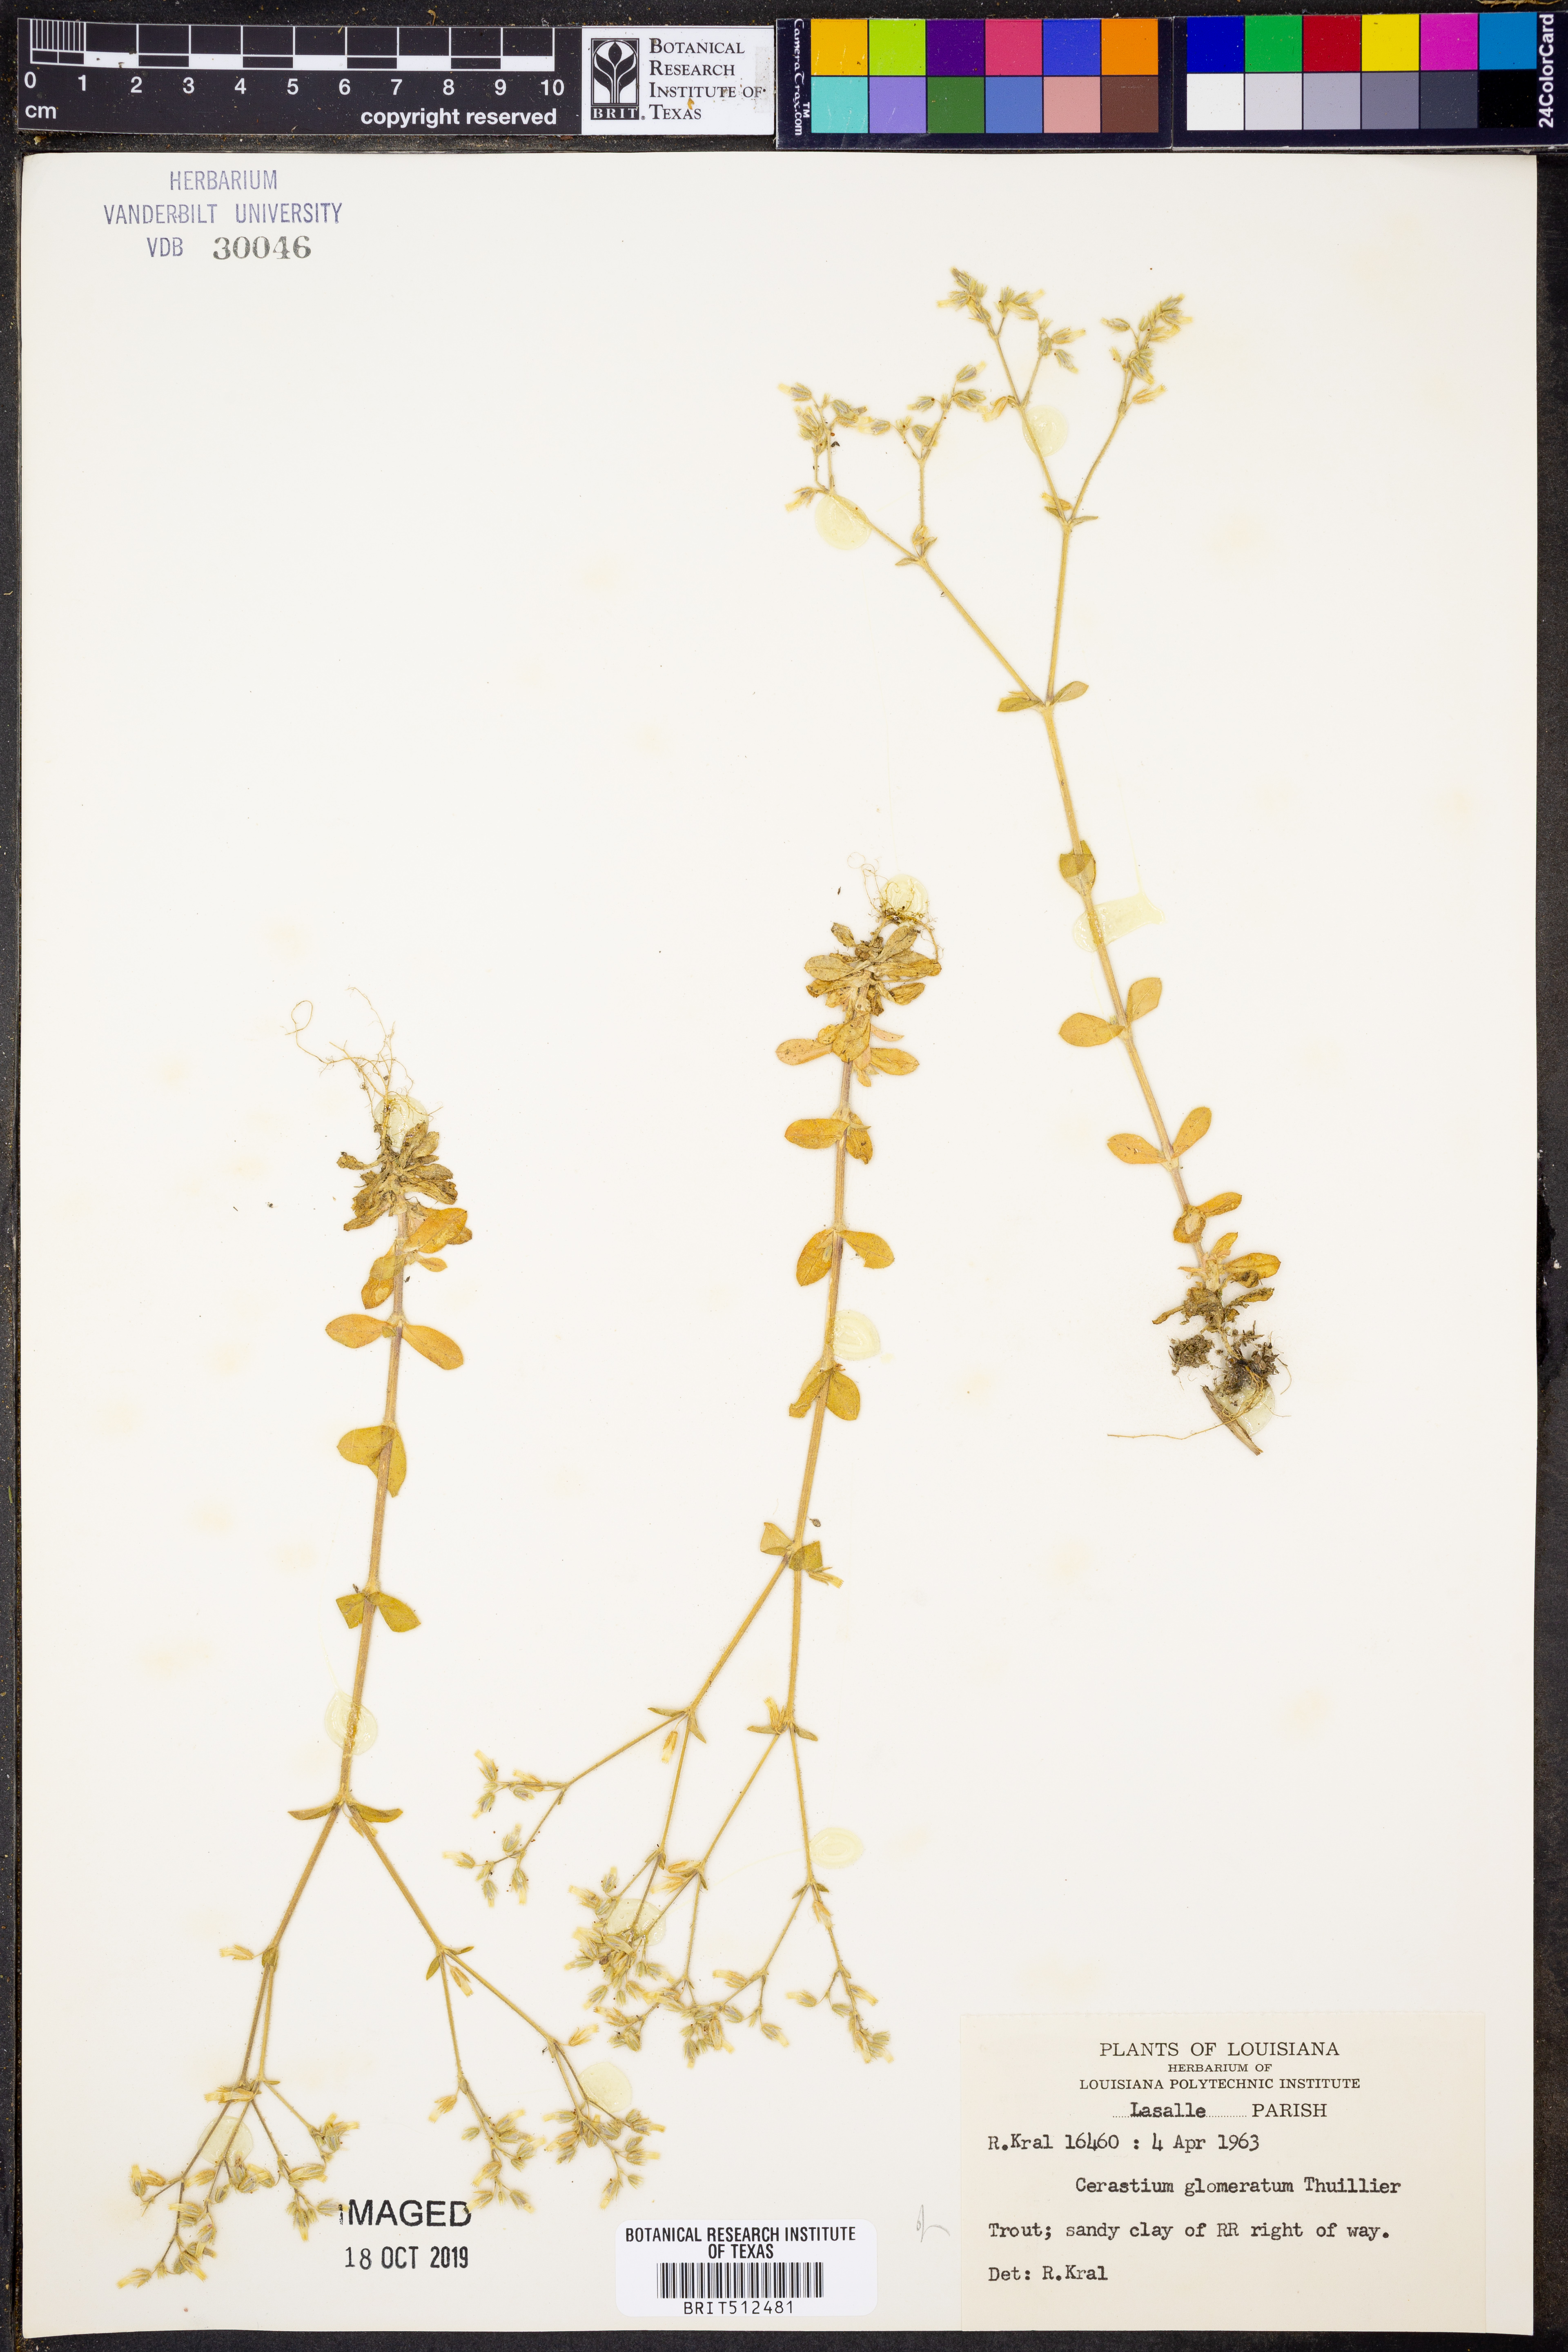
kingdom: Plantae
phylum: Tracheophyta
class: Magnoliopsida
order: Caryophyllales
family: Caryophyllaceae
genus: Cerastium
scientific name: Cerastium glomeratum
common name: Sticky chickweed
